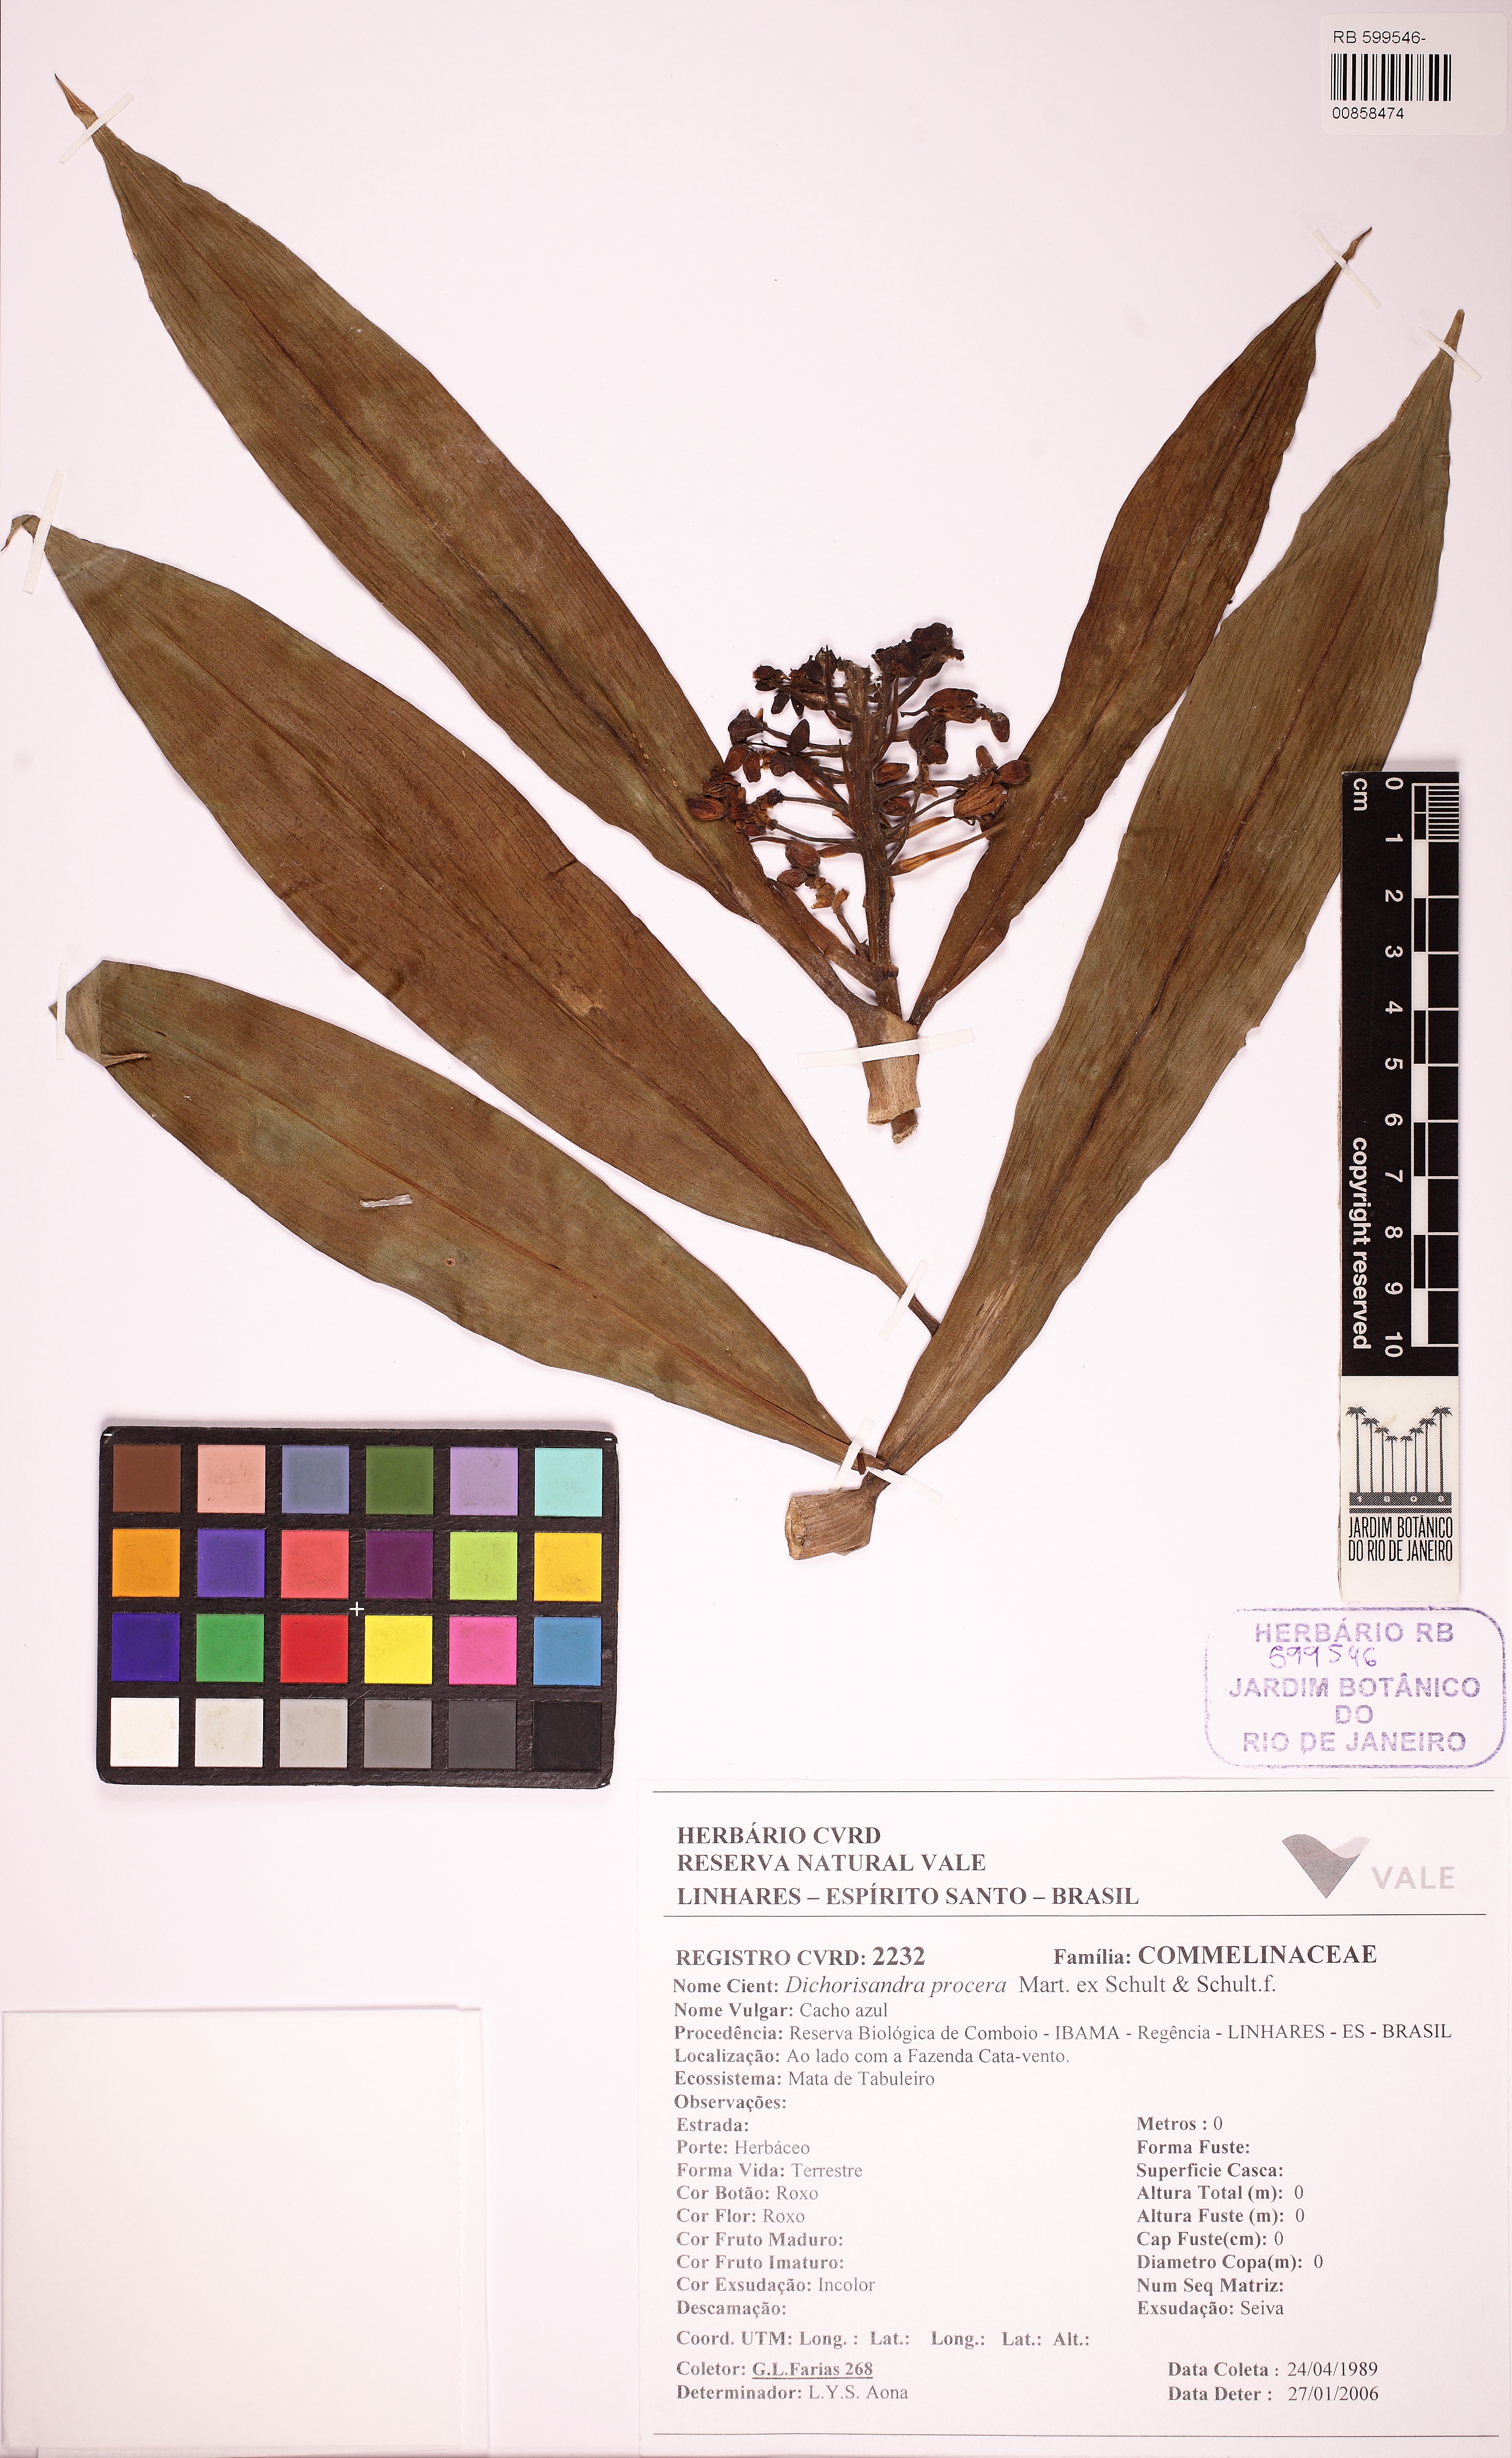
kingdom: Plantae
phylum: Tracheophyta
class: Liliopsida
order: Commelinales
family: Commelinaceae
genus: Dichorisandra
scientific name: Dichorisandra procera
